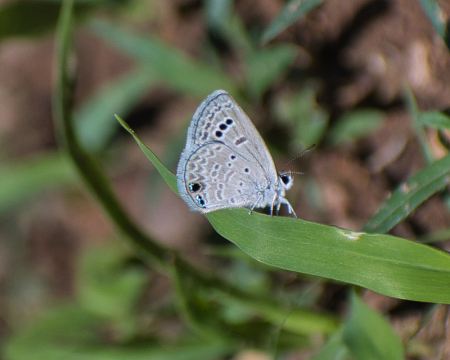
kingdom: Animalia
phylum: Arthropoda
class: Insecta
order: Lepidoptera
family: Lycaenidae
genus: Echinargus
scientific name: Echinargus isola
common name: Reakirt's Blue
